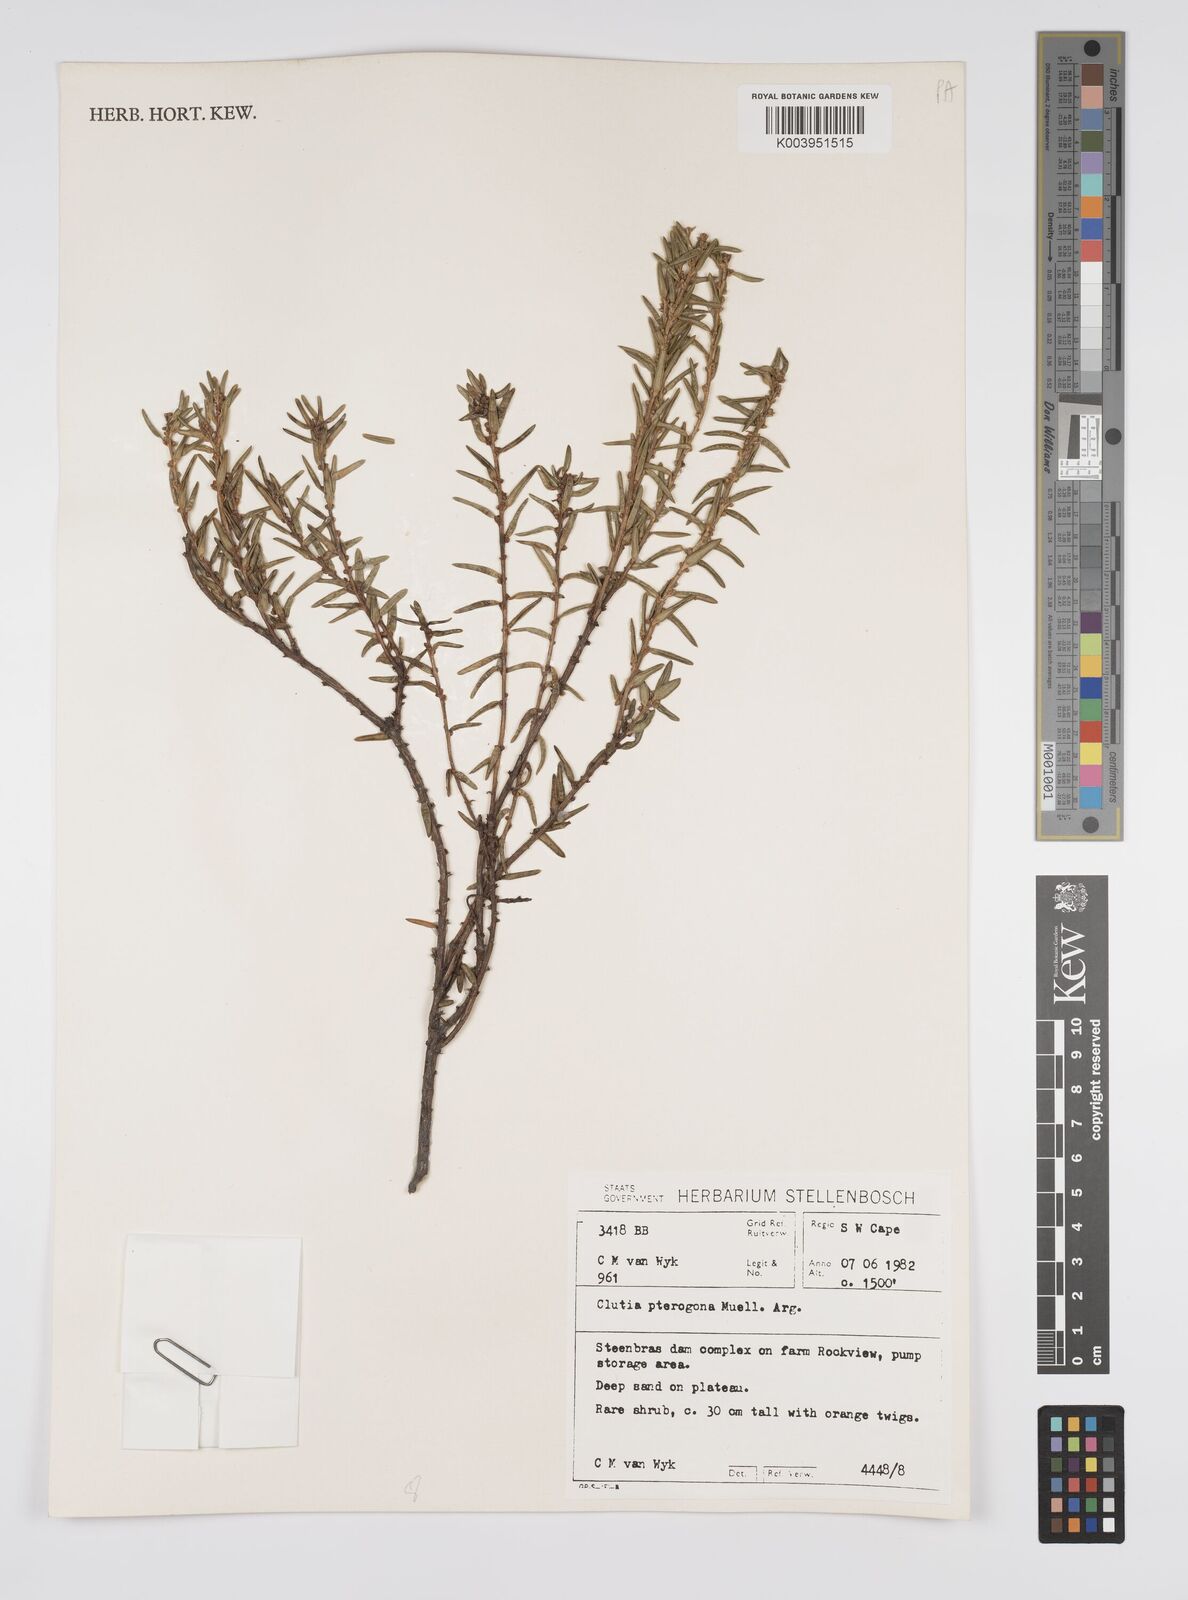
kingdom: Plantae
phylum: Tracheophyta
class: Magnoliopsida
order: Malpighiales
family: Peraceae
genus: Clutia
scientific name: Clutia pterogona
